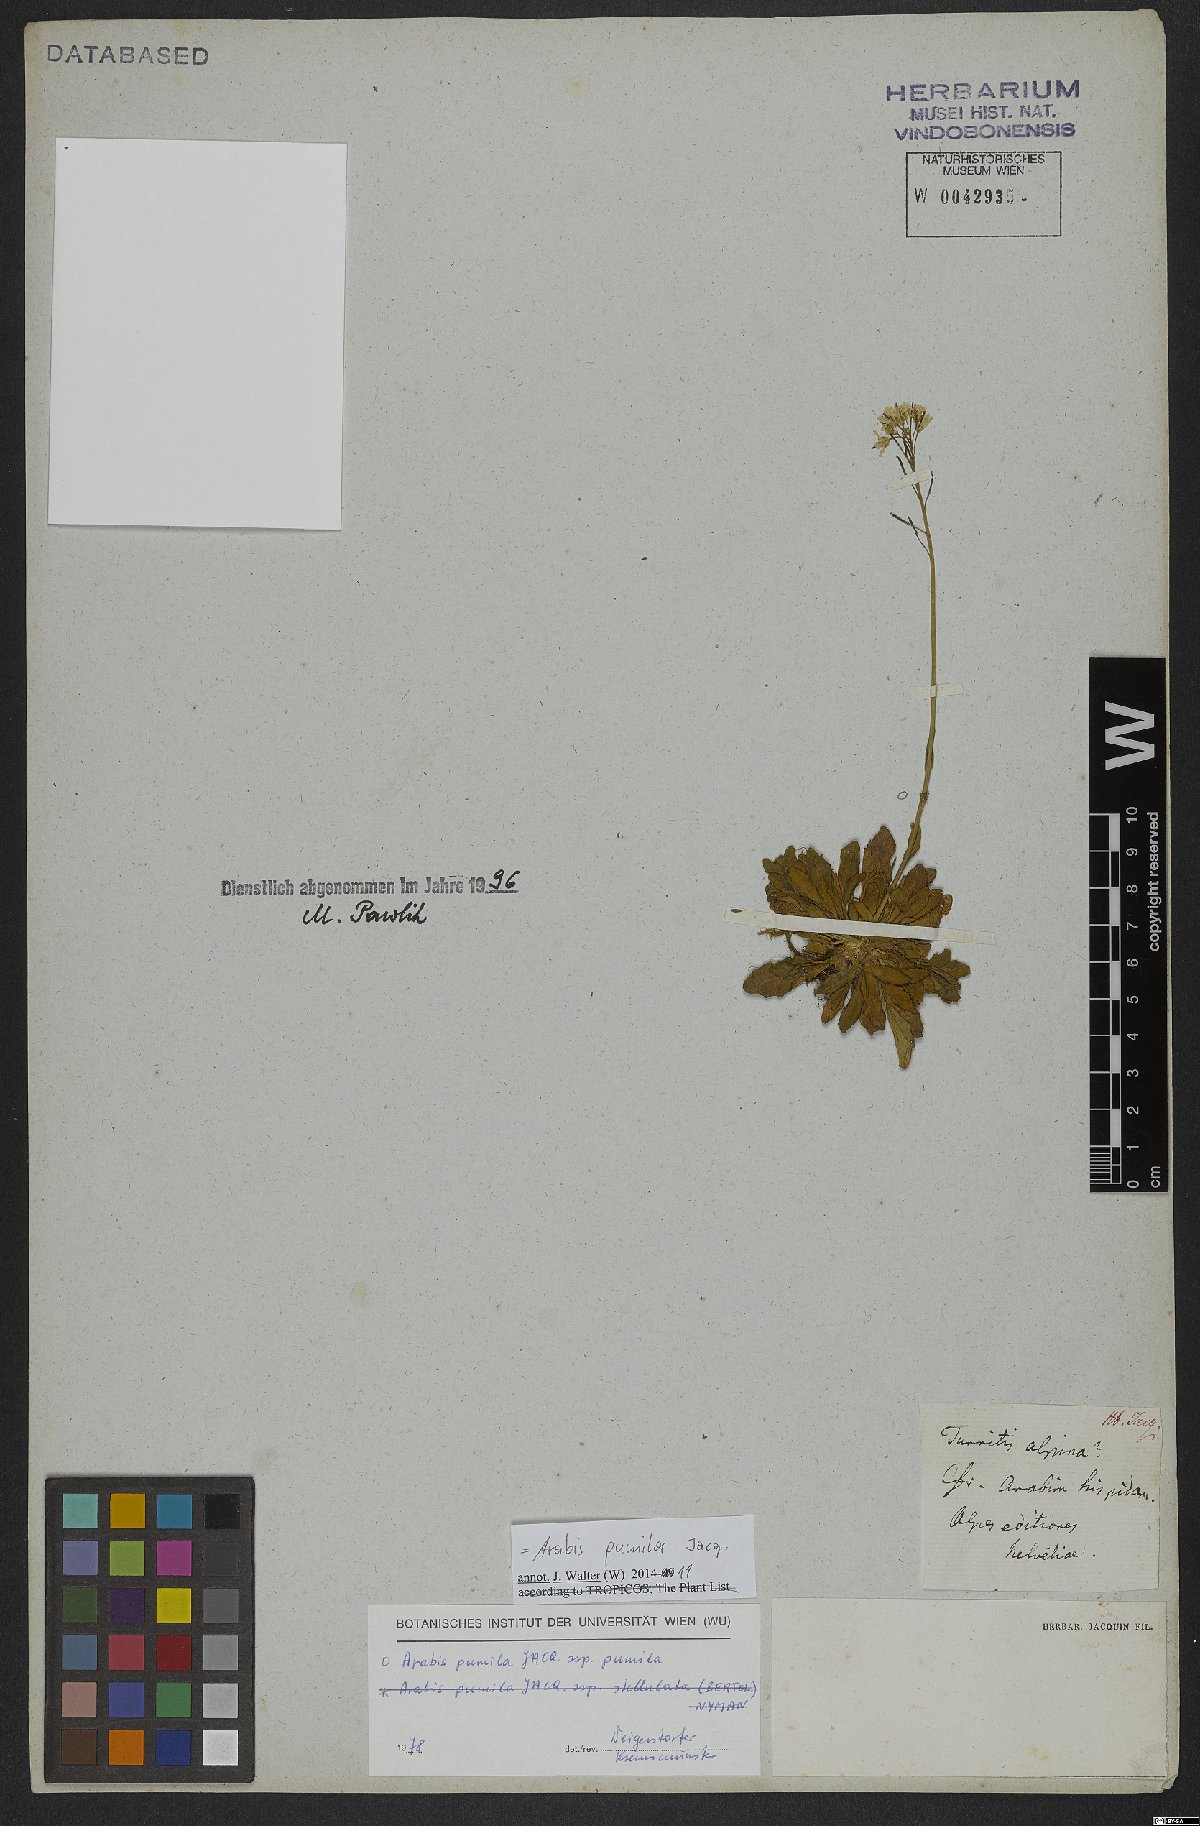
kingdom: Plantae
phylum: Tracheophyta
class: Magnoliopsida
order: Brassicales
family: Brassicaceae
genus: Arabis
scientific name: Arabis pumila
